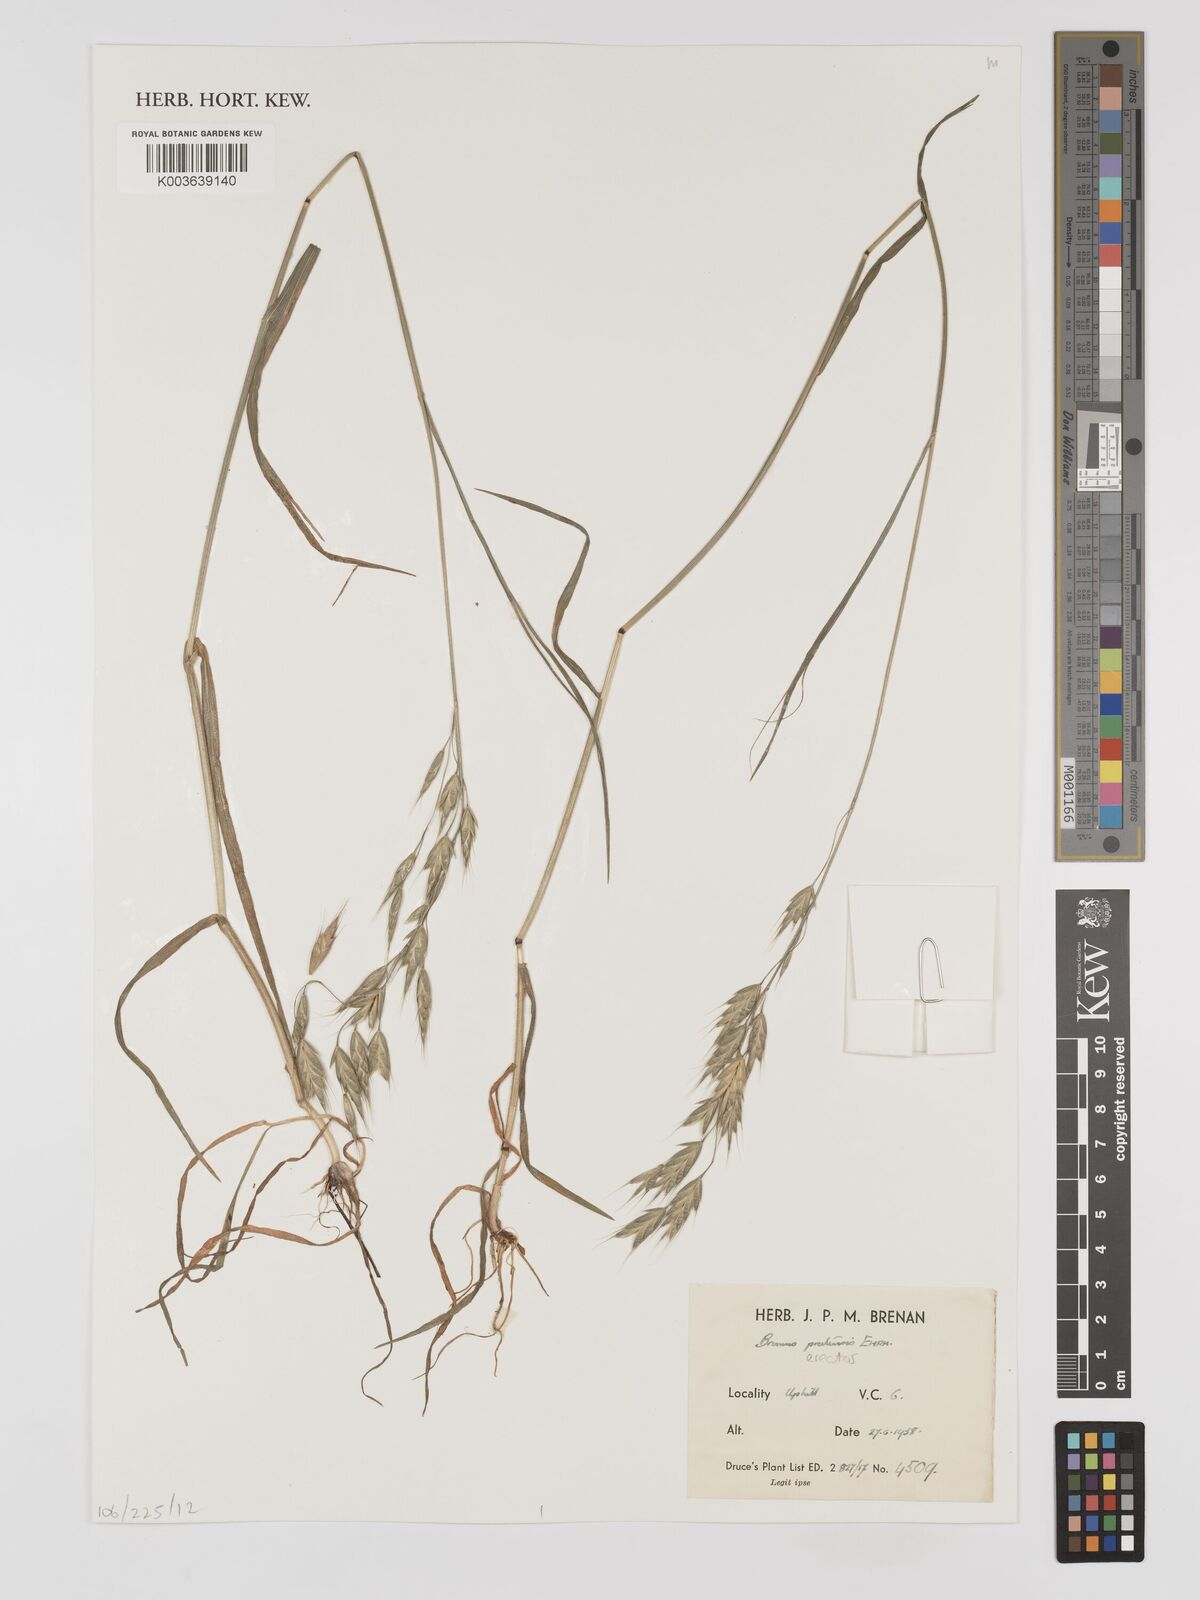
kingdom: Plantae
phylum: Tracheophyta
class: Liliopsida
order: Poales
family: Poaceae
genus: Bromus
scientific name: Bromus erectus
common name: Erect brome
